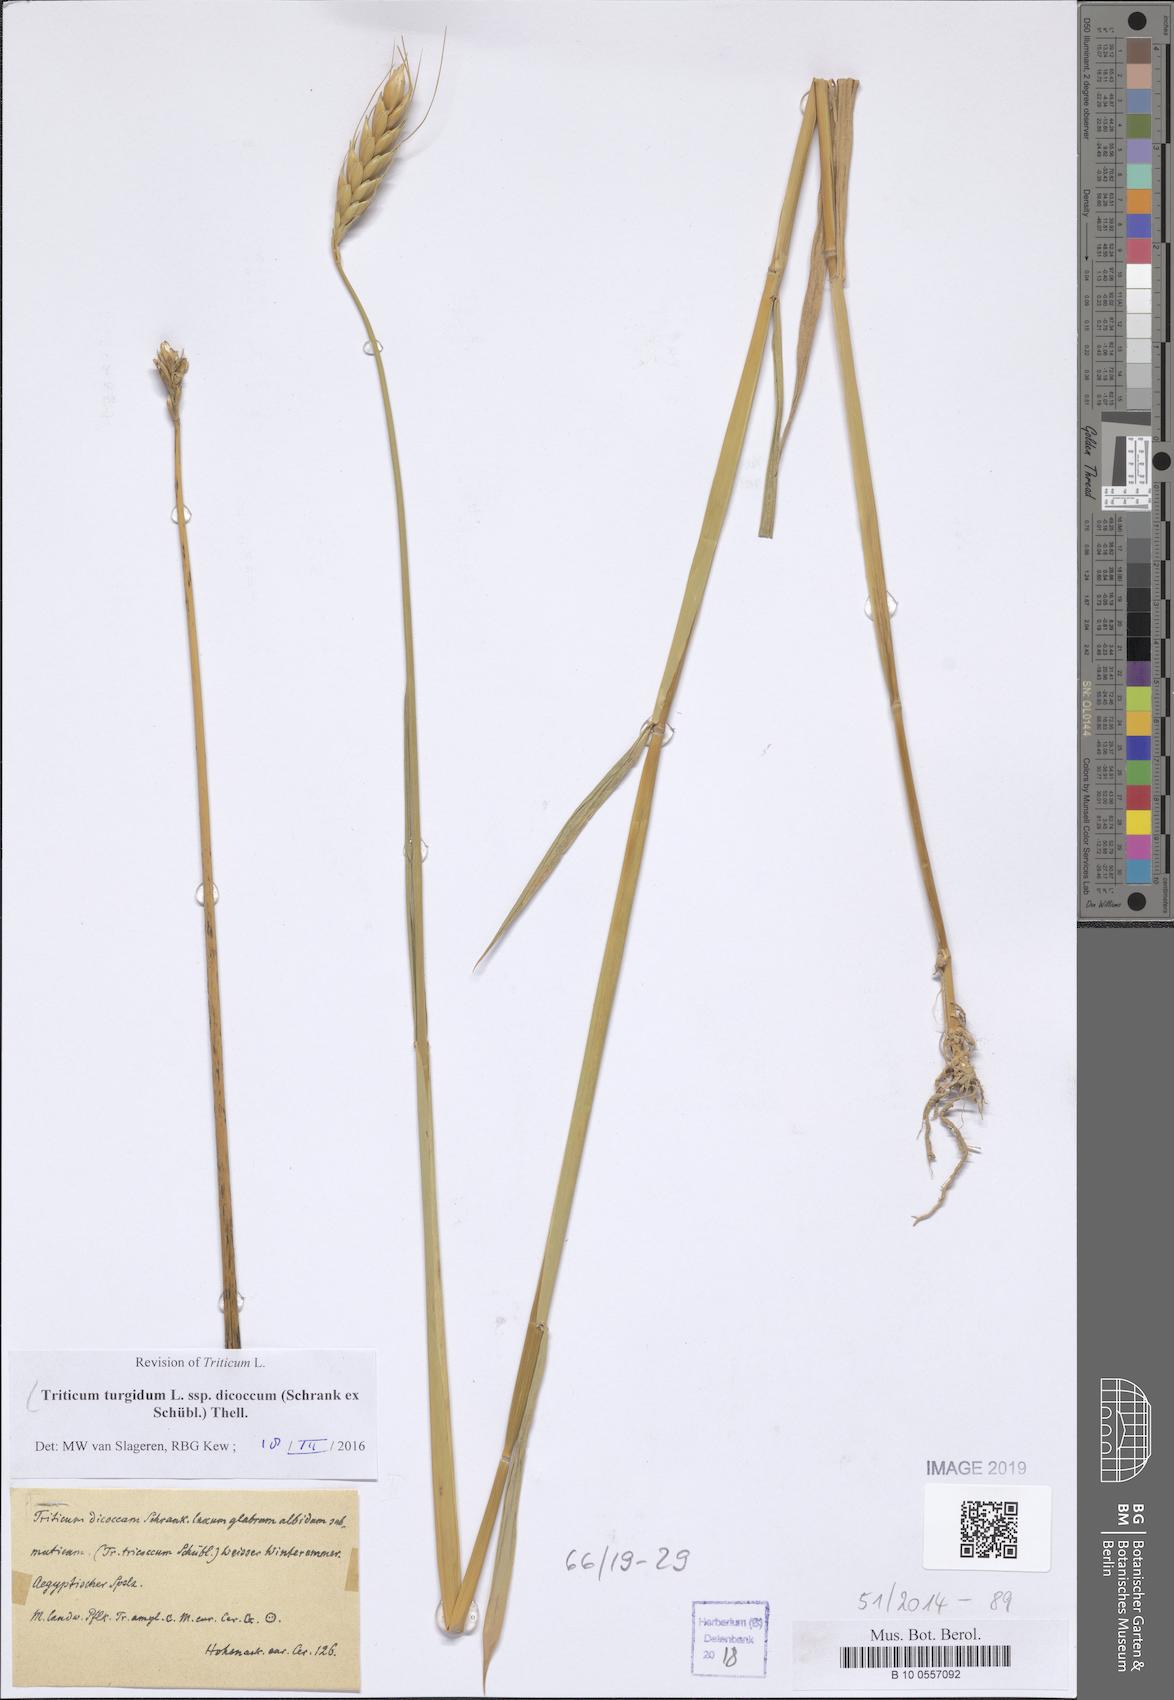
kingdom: Plantae
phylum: Tracheophyta
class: Liliopsida
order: Poales
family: Poaceae
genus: Triticum
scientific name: Triticum turgidum
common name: Rivet wheat
